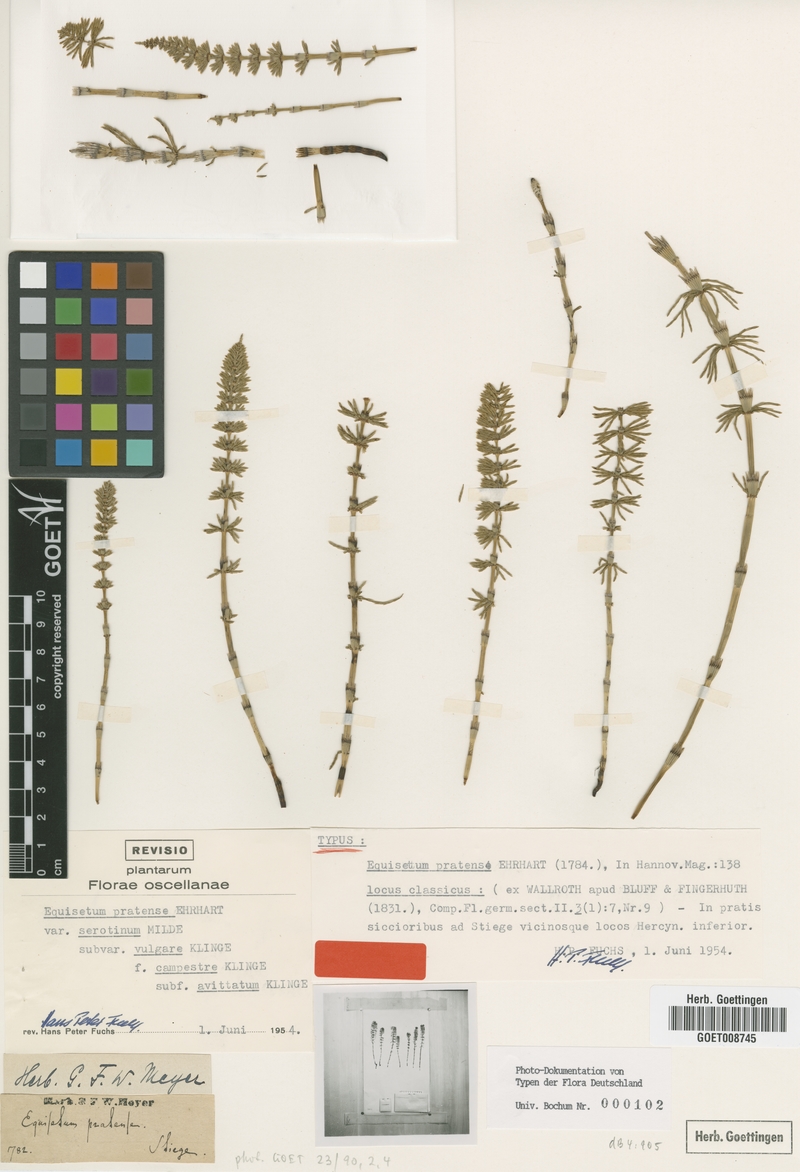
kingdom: Plantae
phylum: Tracheophyta
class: Polypodiopsida
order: Equisetales
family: Equisetaceae
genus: Equisetum
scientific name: Equisetum pratense
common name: Meadow horsetail
